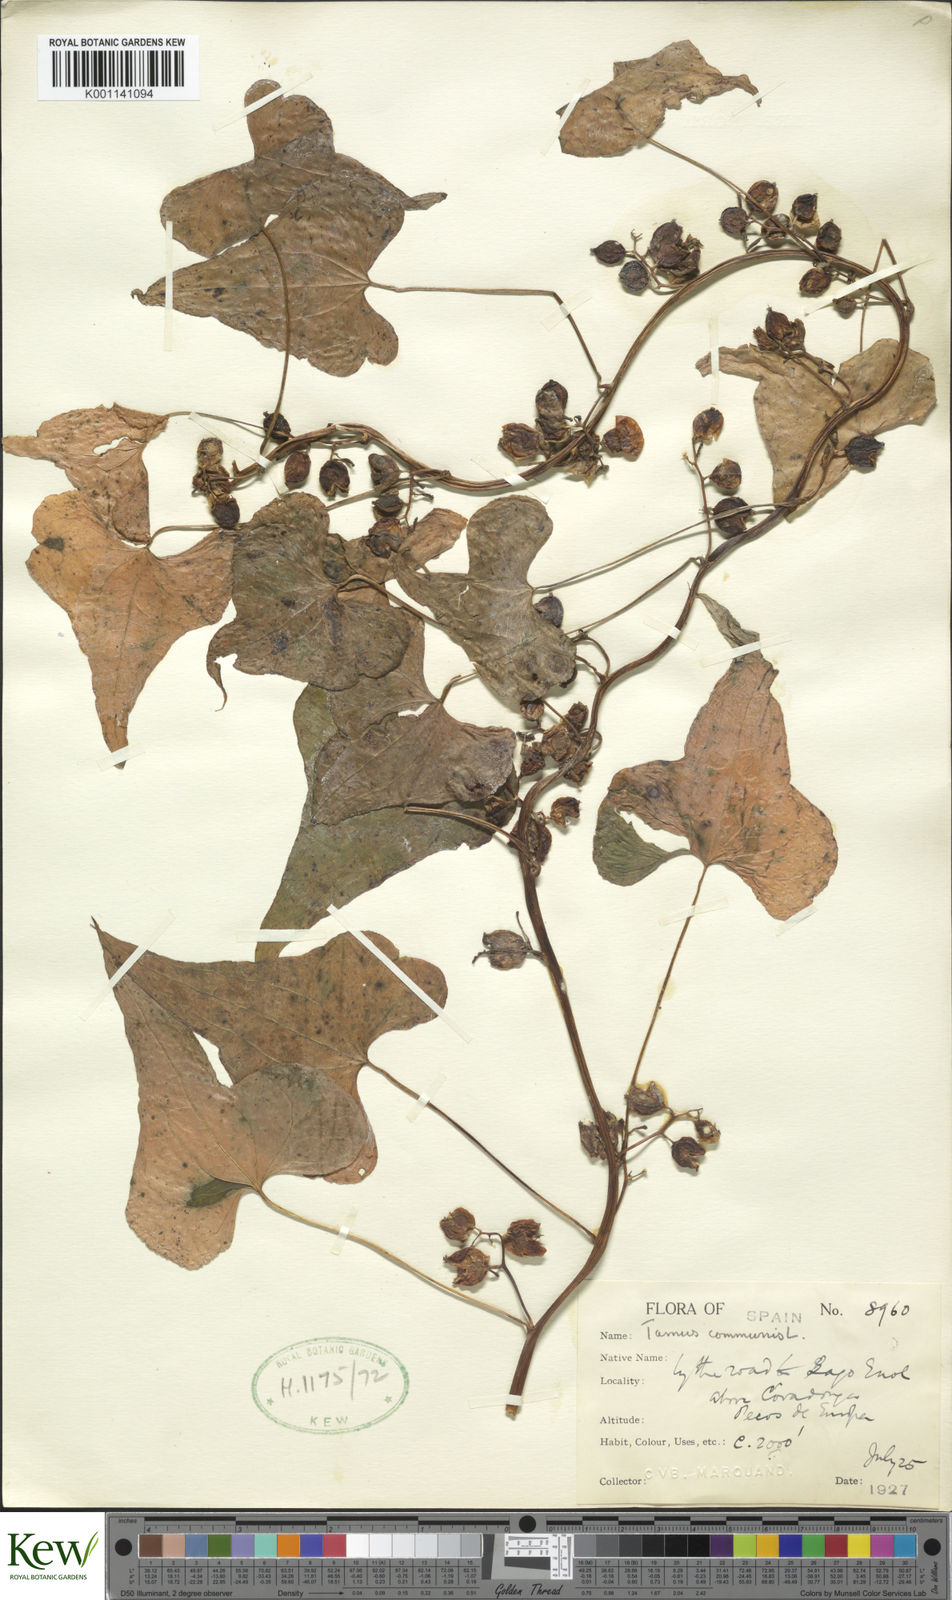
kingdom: Plantae
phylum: Tracheophyta
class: Liliopsida
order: Dioscoreales
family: Dioscoreaceae
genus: Dioscorea
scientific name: Dioscorea communis
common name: Black-bindweed
